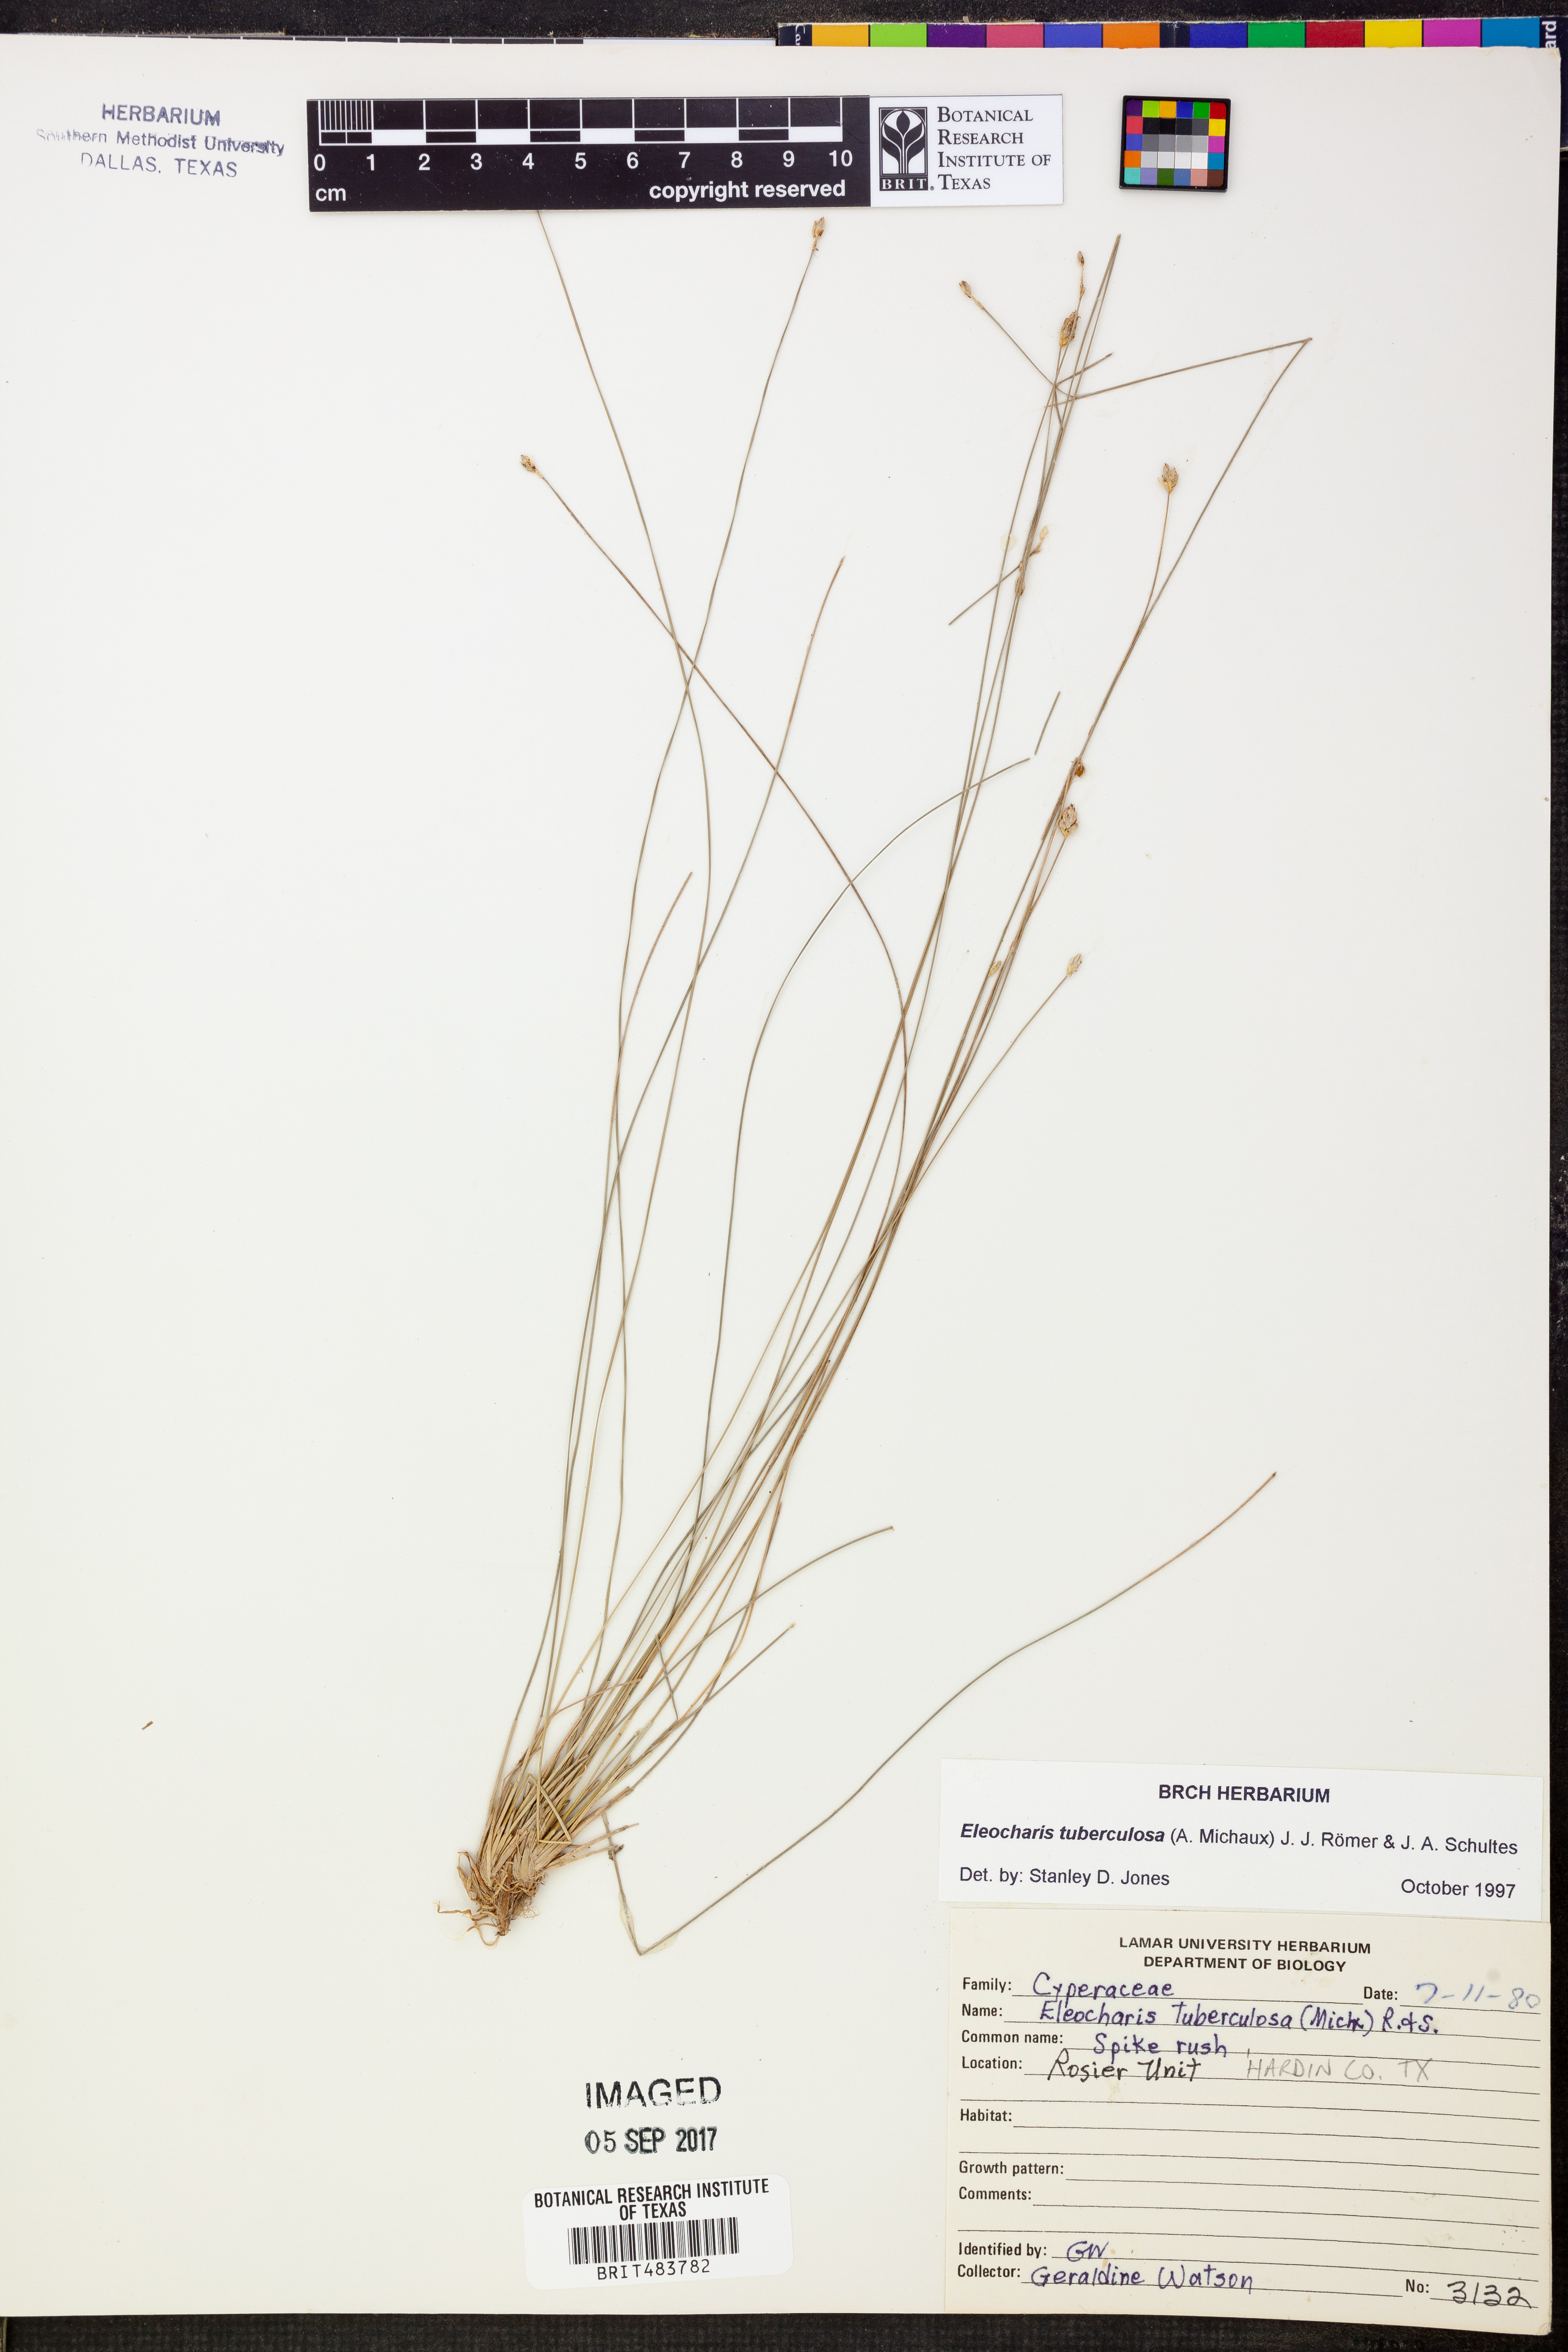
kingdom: Plantae
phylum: Tracheophyta
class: Liliopsida
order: Poales
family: Cyperaceae
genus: Eleocharis
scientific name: Eleocharis tuberculosa
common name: Cone-cup spikerush
